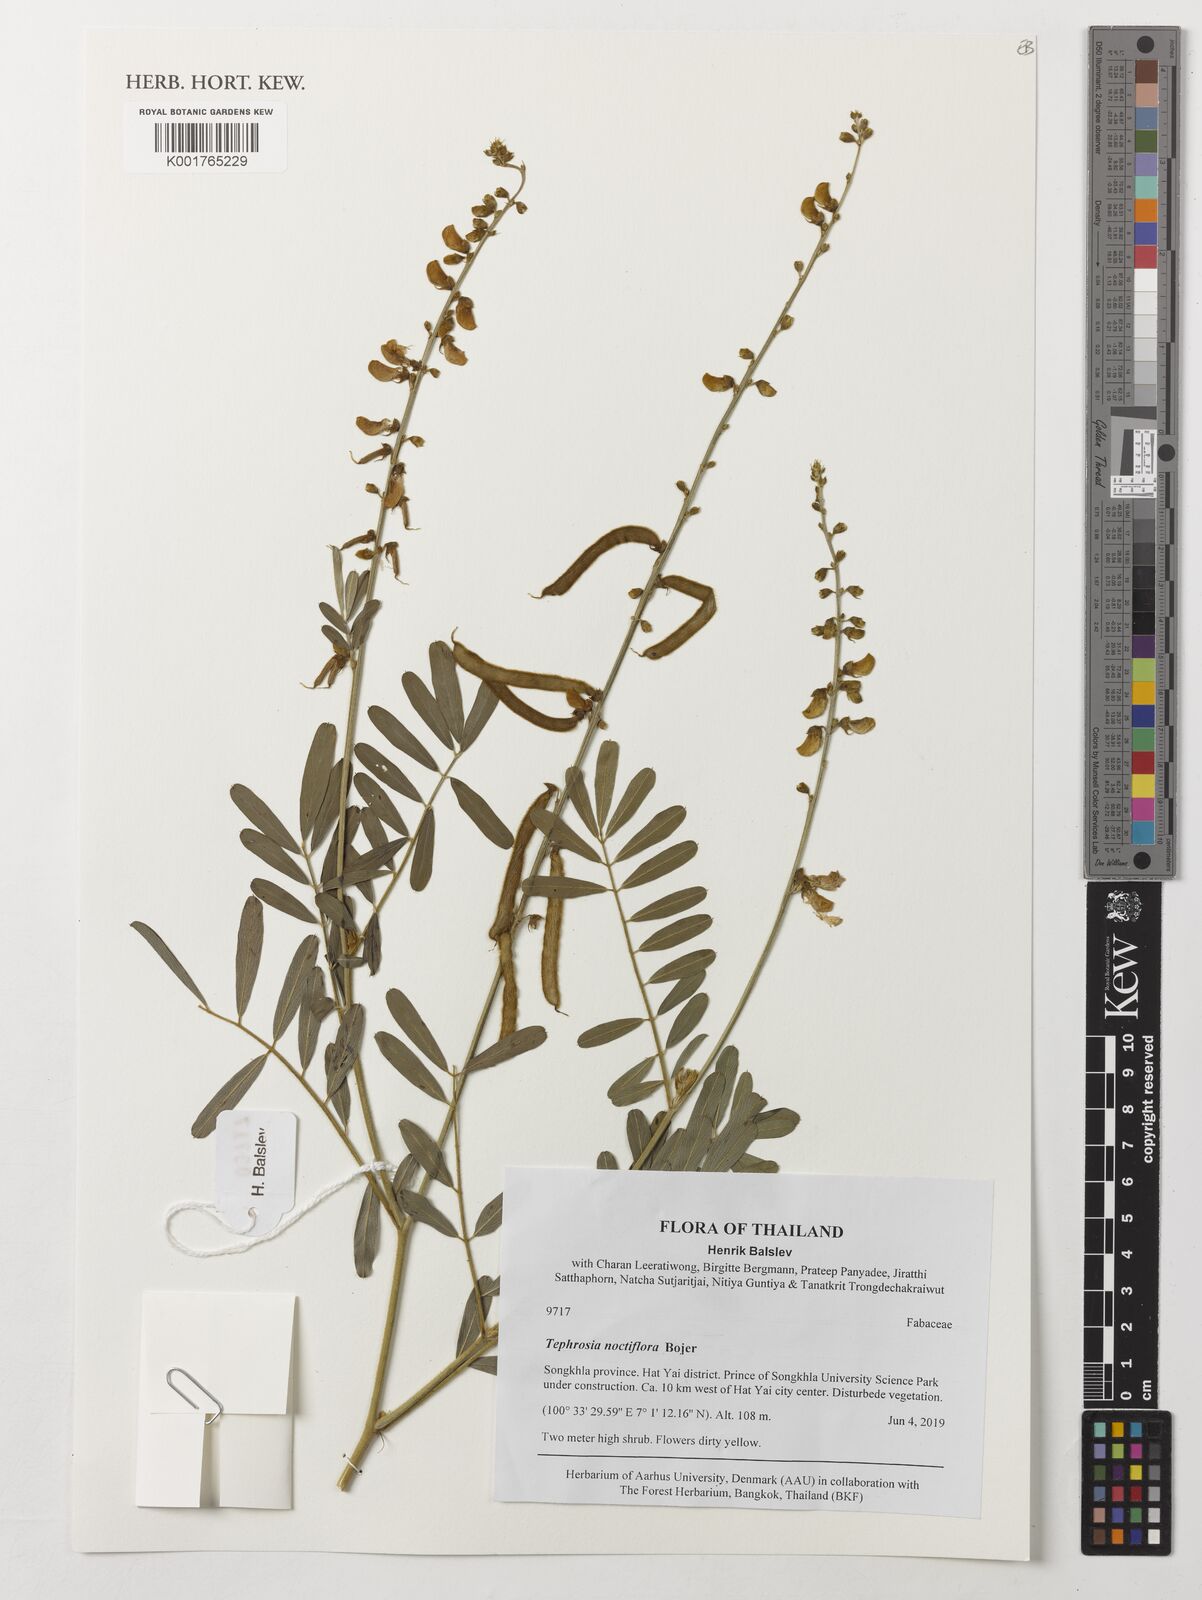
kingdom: Plantae
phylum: Tracheophyta
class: Magnoliopsida
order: Fabales
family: Fabaceae
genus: Tephrosia
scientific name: Tephrosia noctiflora
